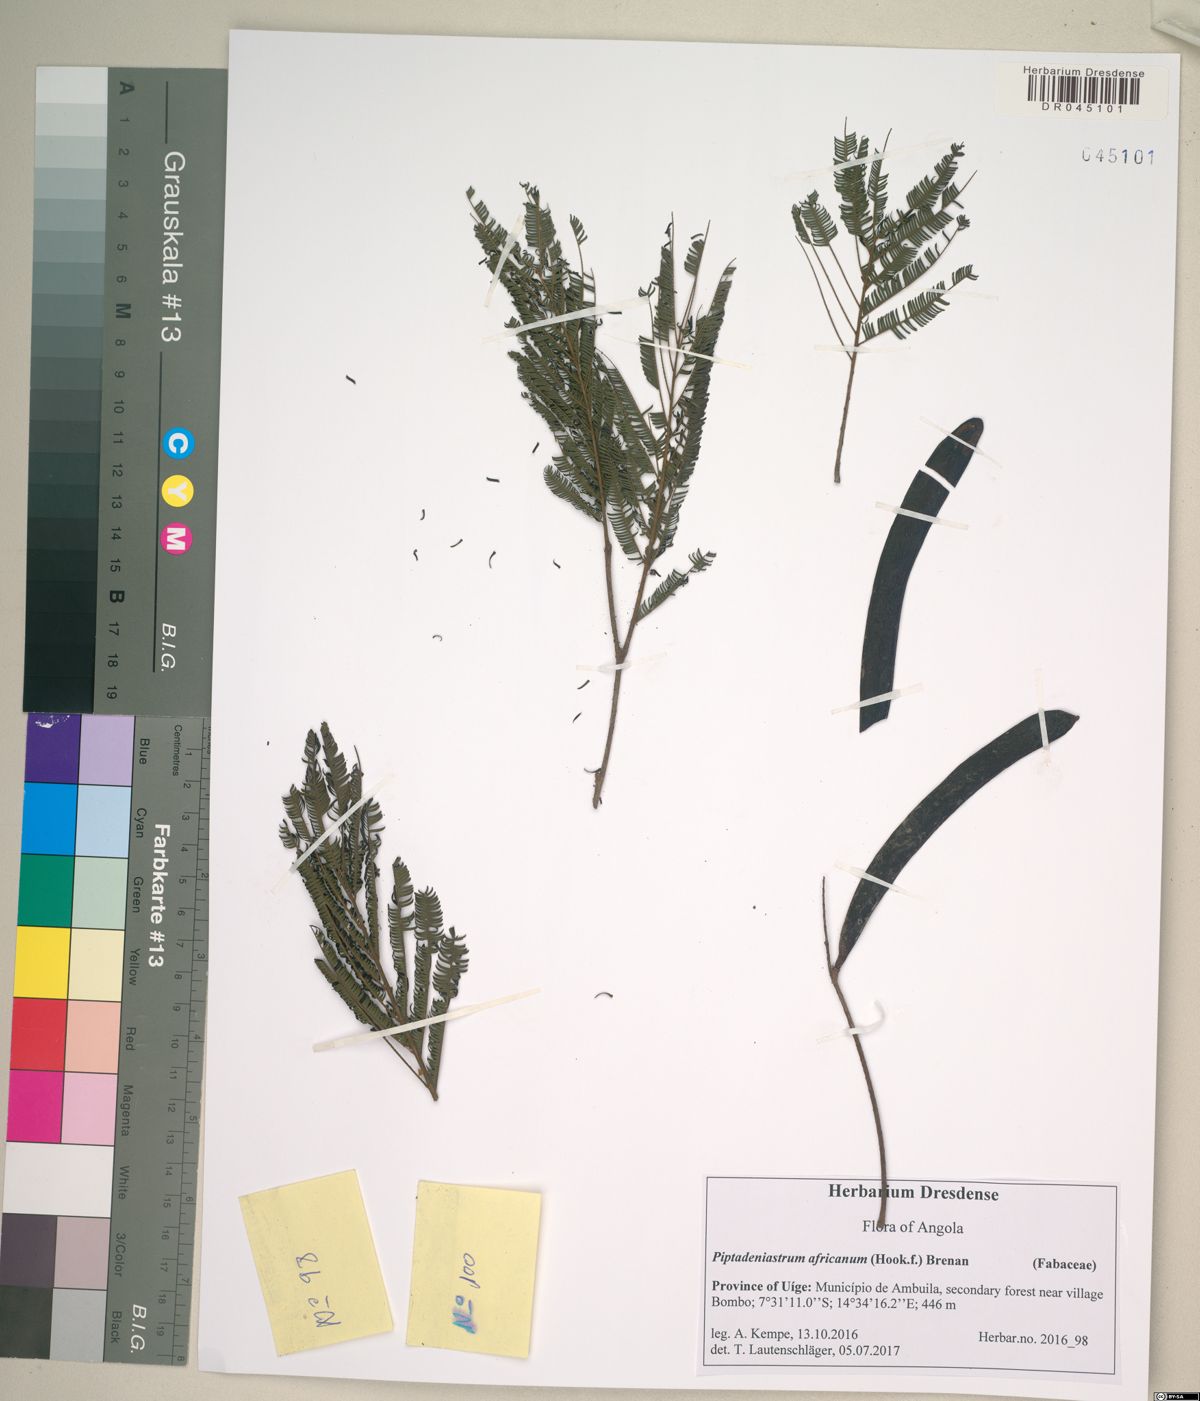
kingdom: Plantae
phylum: Tracheophyta
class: Magnoliopsida
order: Fabales
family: Fabaceae
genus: Piptadeniastrum
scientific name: Piptadeniastrum africanum
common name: African greenheart
